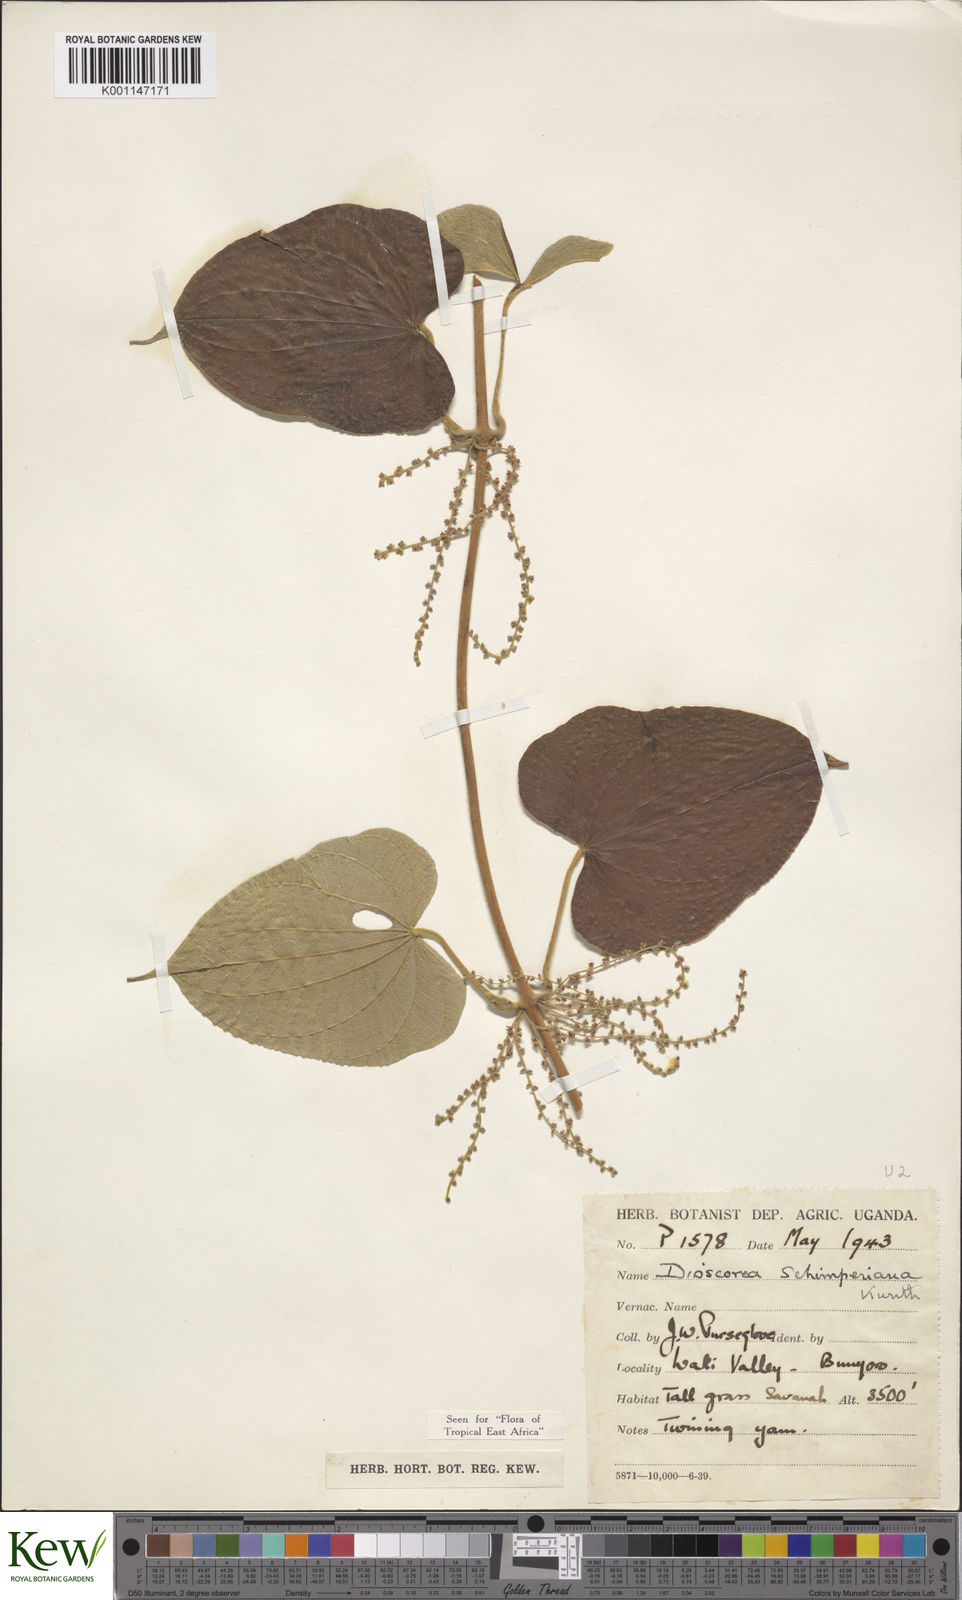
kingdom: Plantae
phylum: Tracheophyta
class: Liliopsida
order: Dioscoreales
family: Dioscoreaceae
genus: Dioscorea
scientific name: Dioscorea schimperiana
